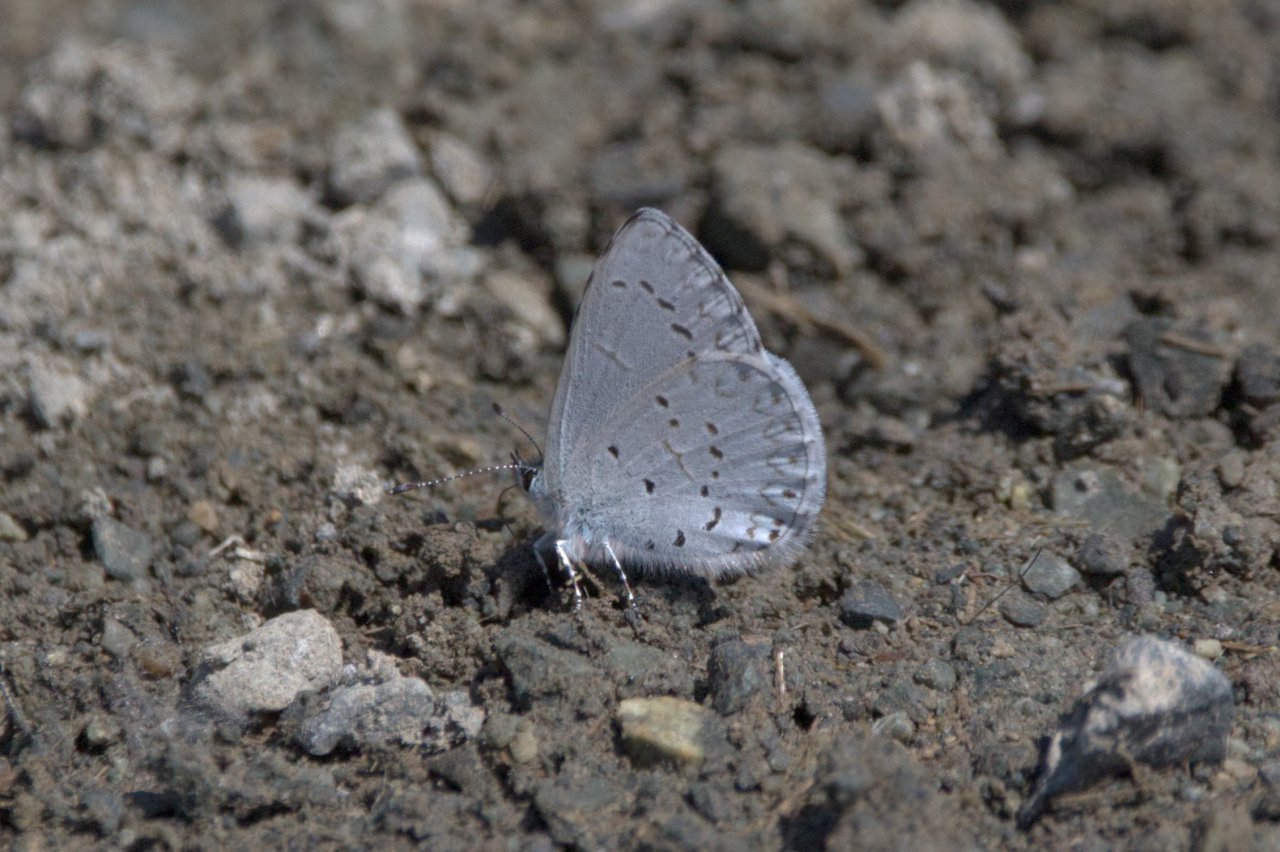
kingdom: Animalia
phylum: Arthropoda
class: Insecta
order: Lepidoptera
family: Lycaenidae
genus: Celastrina
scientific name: Celastrina ladon
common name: Echo Azure
